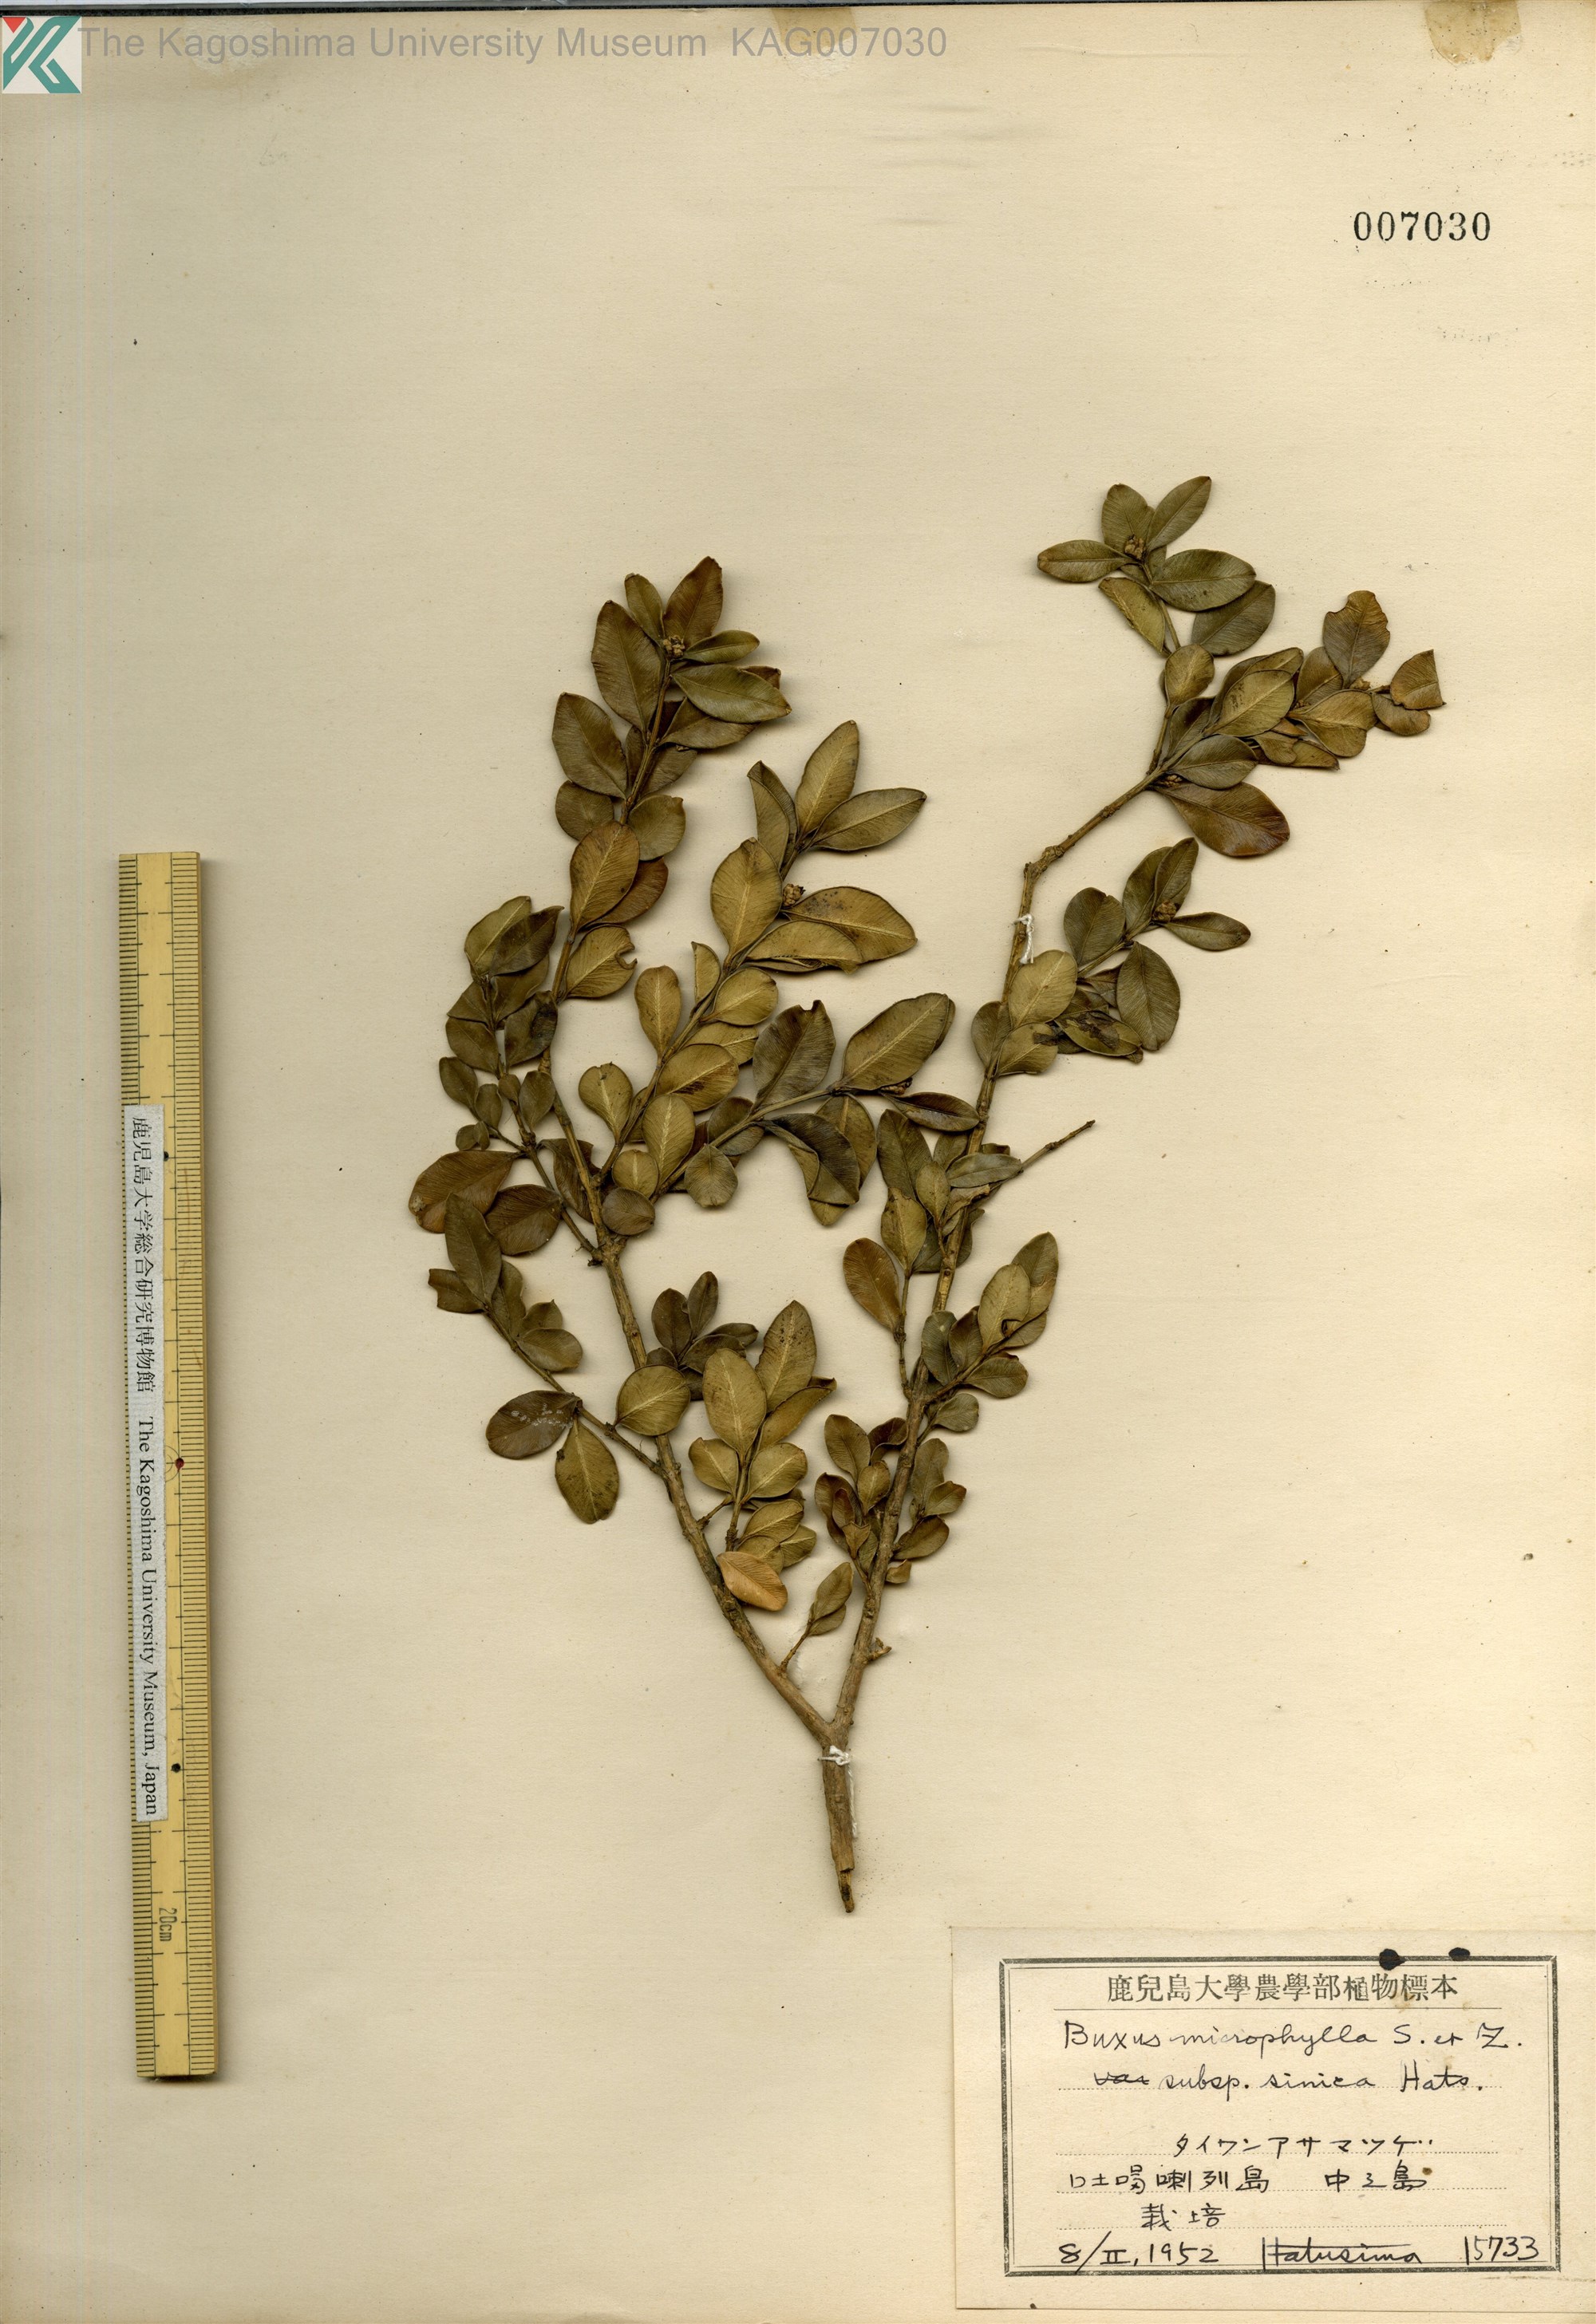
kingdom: Plantae
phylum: Tracheophyta
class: Magnoliopsida
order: Buxales
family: Buxaceae
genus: Buxus
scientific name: Buxus sinica
